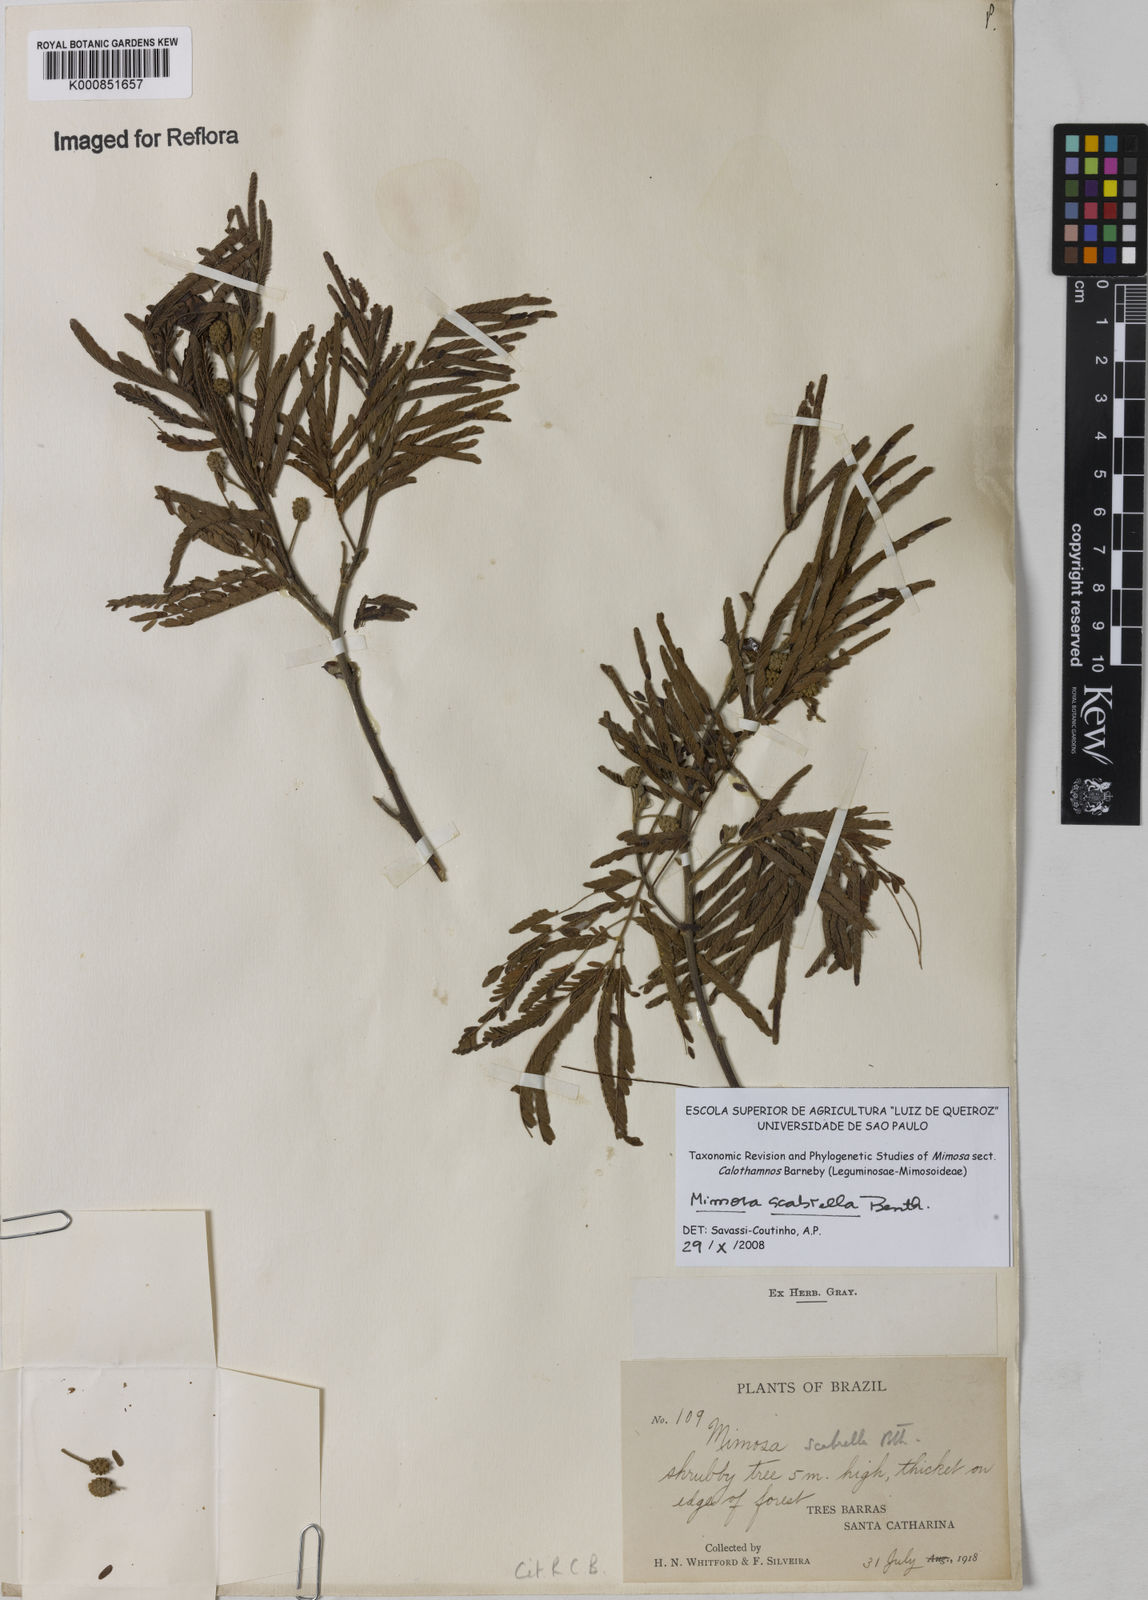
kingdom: Plantae
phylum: Tracheophyta
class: Magnoliopsida
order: Fabales
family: Fabaceae
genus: Mimosa
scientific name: Mimosa scabrella
